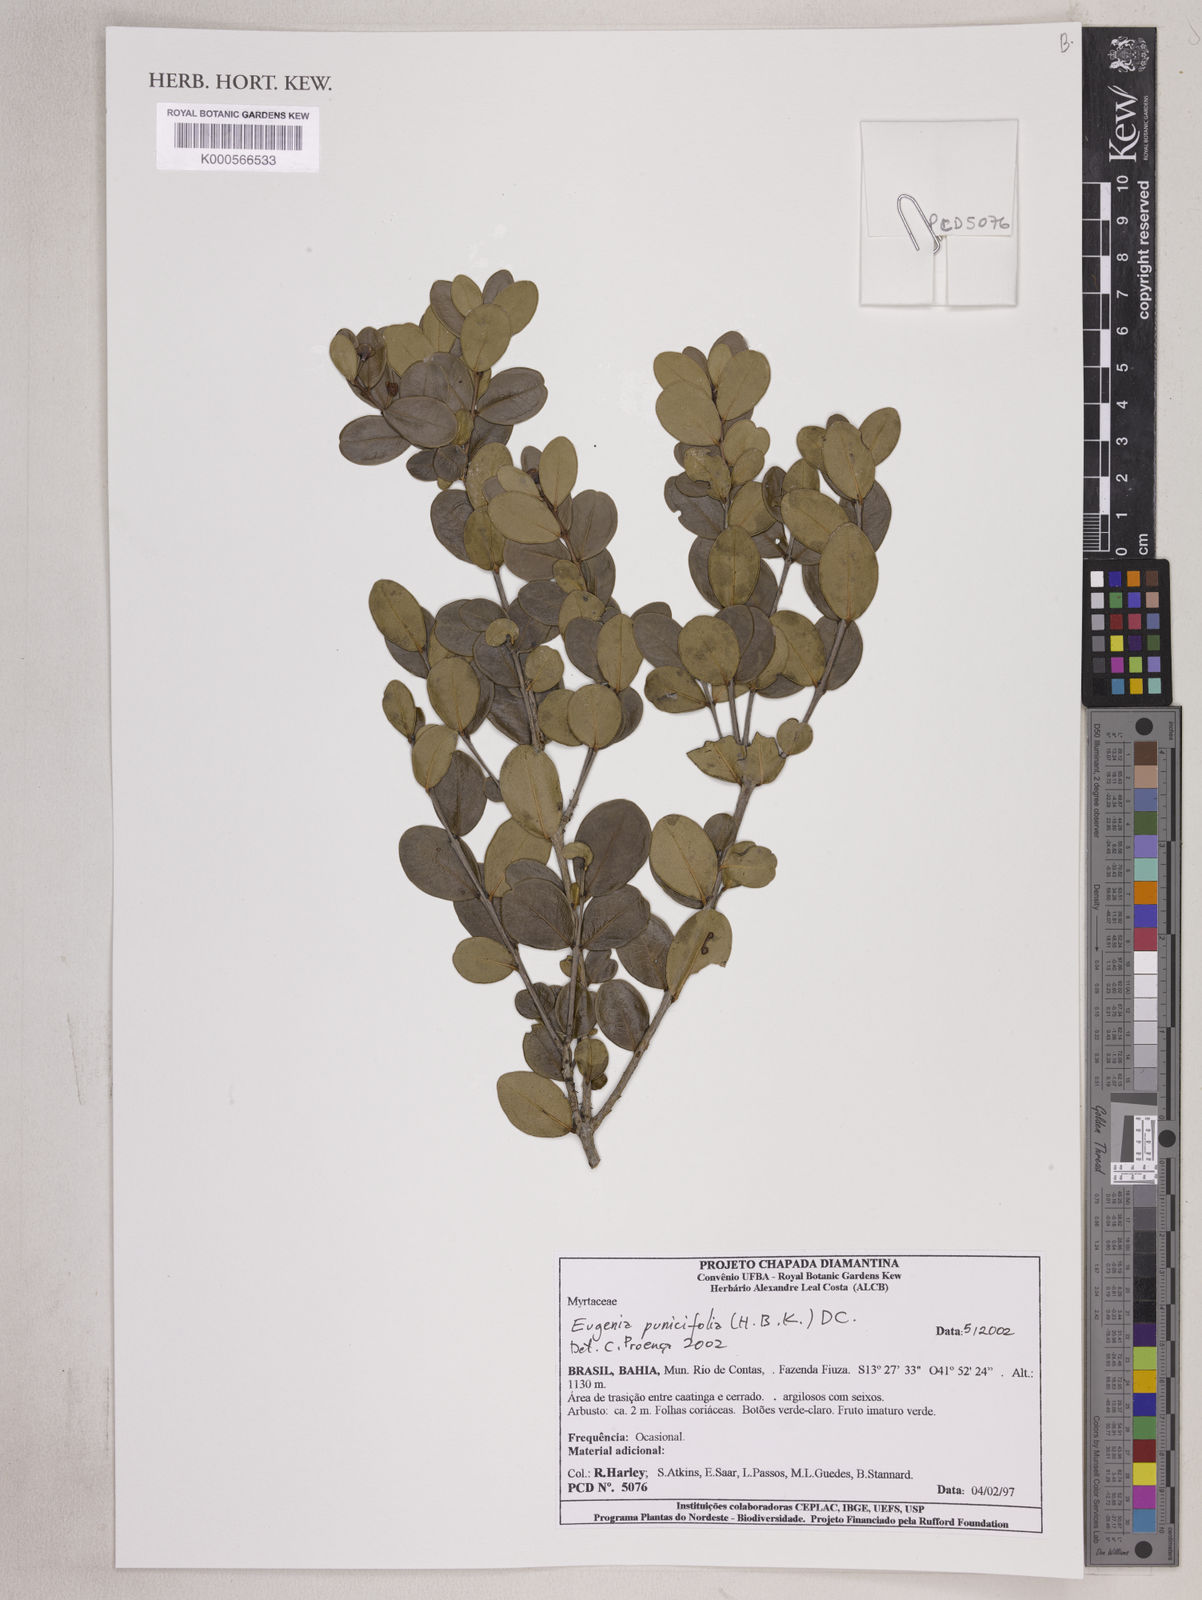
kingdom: Plantae
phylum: Tracheophyta
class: Magnoliopsida
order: Myrtales
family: Myrtaceae
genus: Eugenia
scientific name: Eugenia punicifolia
